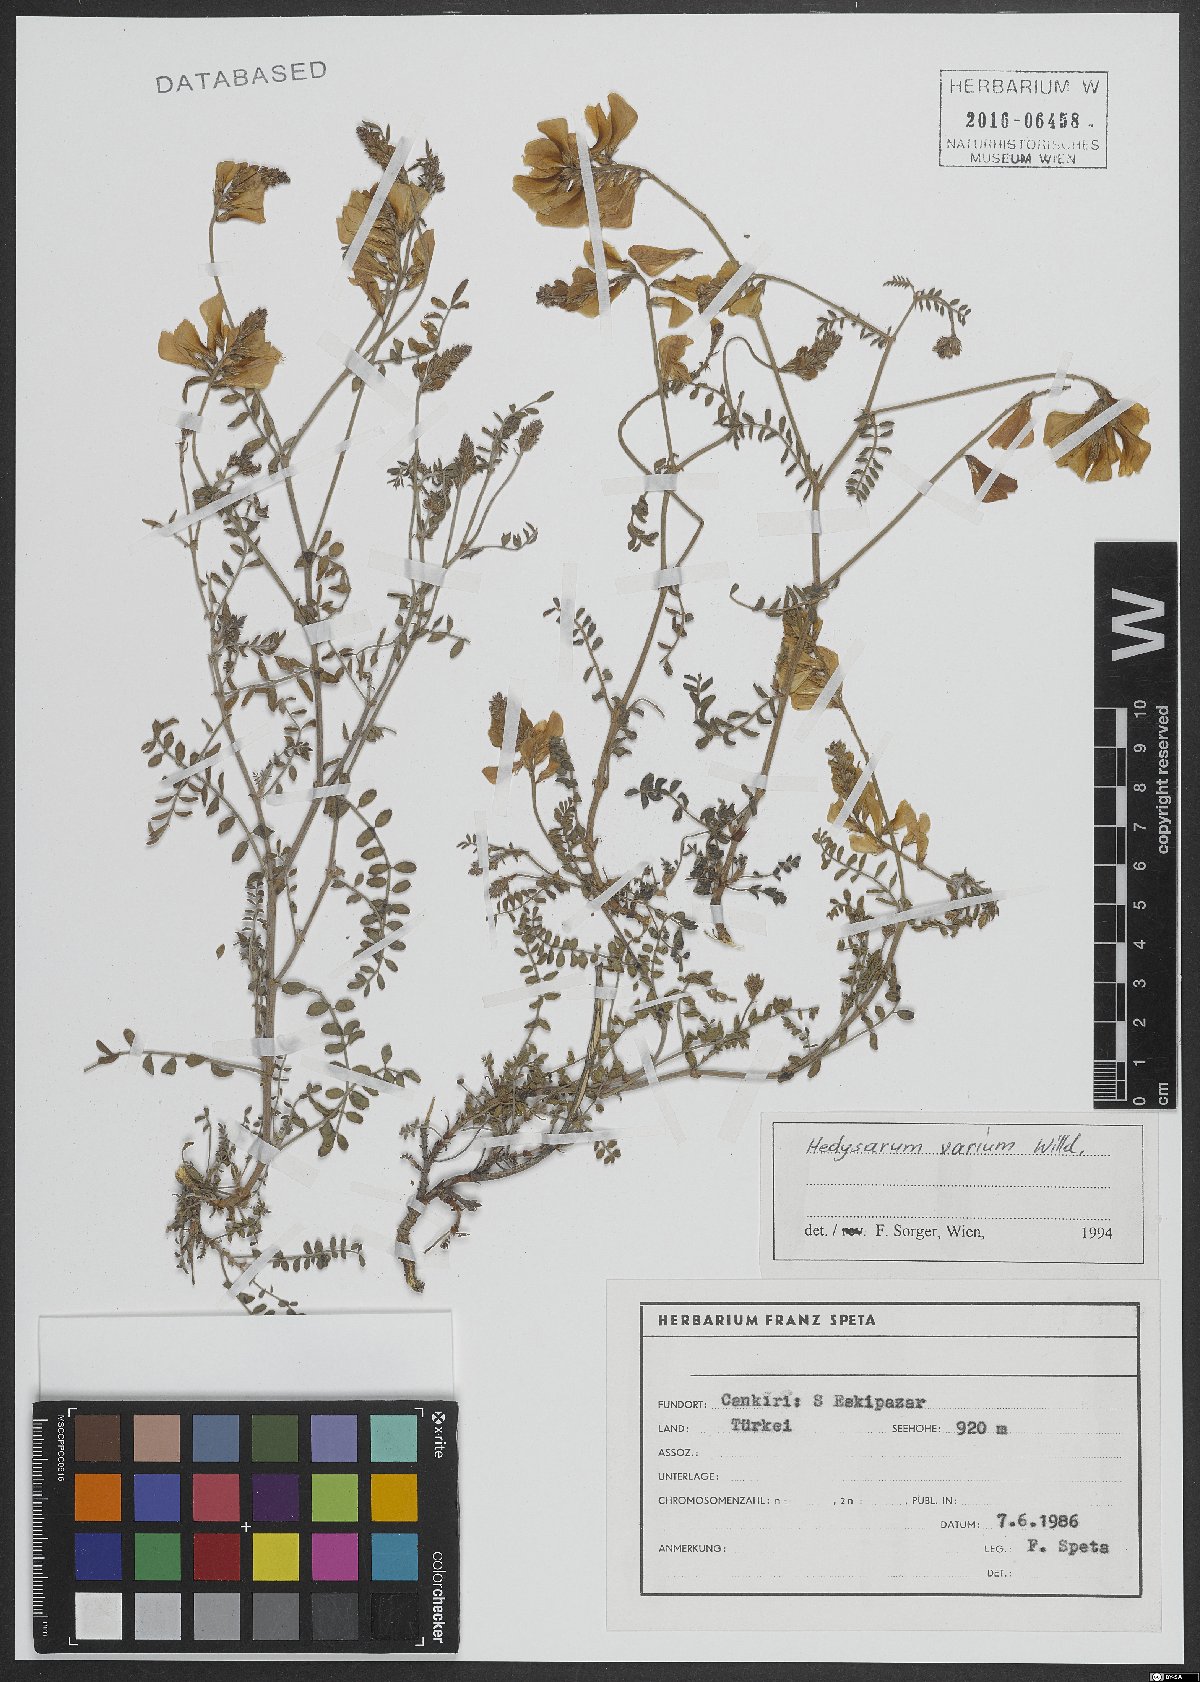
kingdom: Plantae
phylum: Tracheophyta
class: Magnoliopsida
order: Fabales
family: Fabaceae
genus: Hedysarum
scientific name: Hedysarum varium
